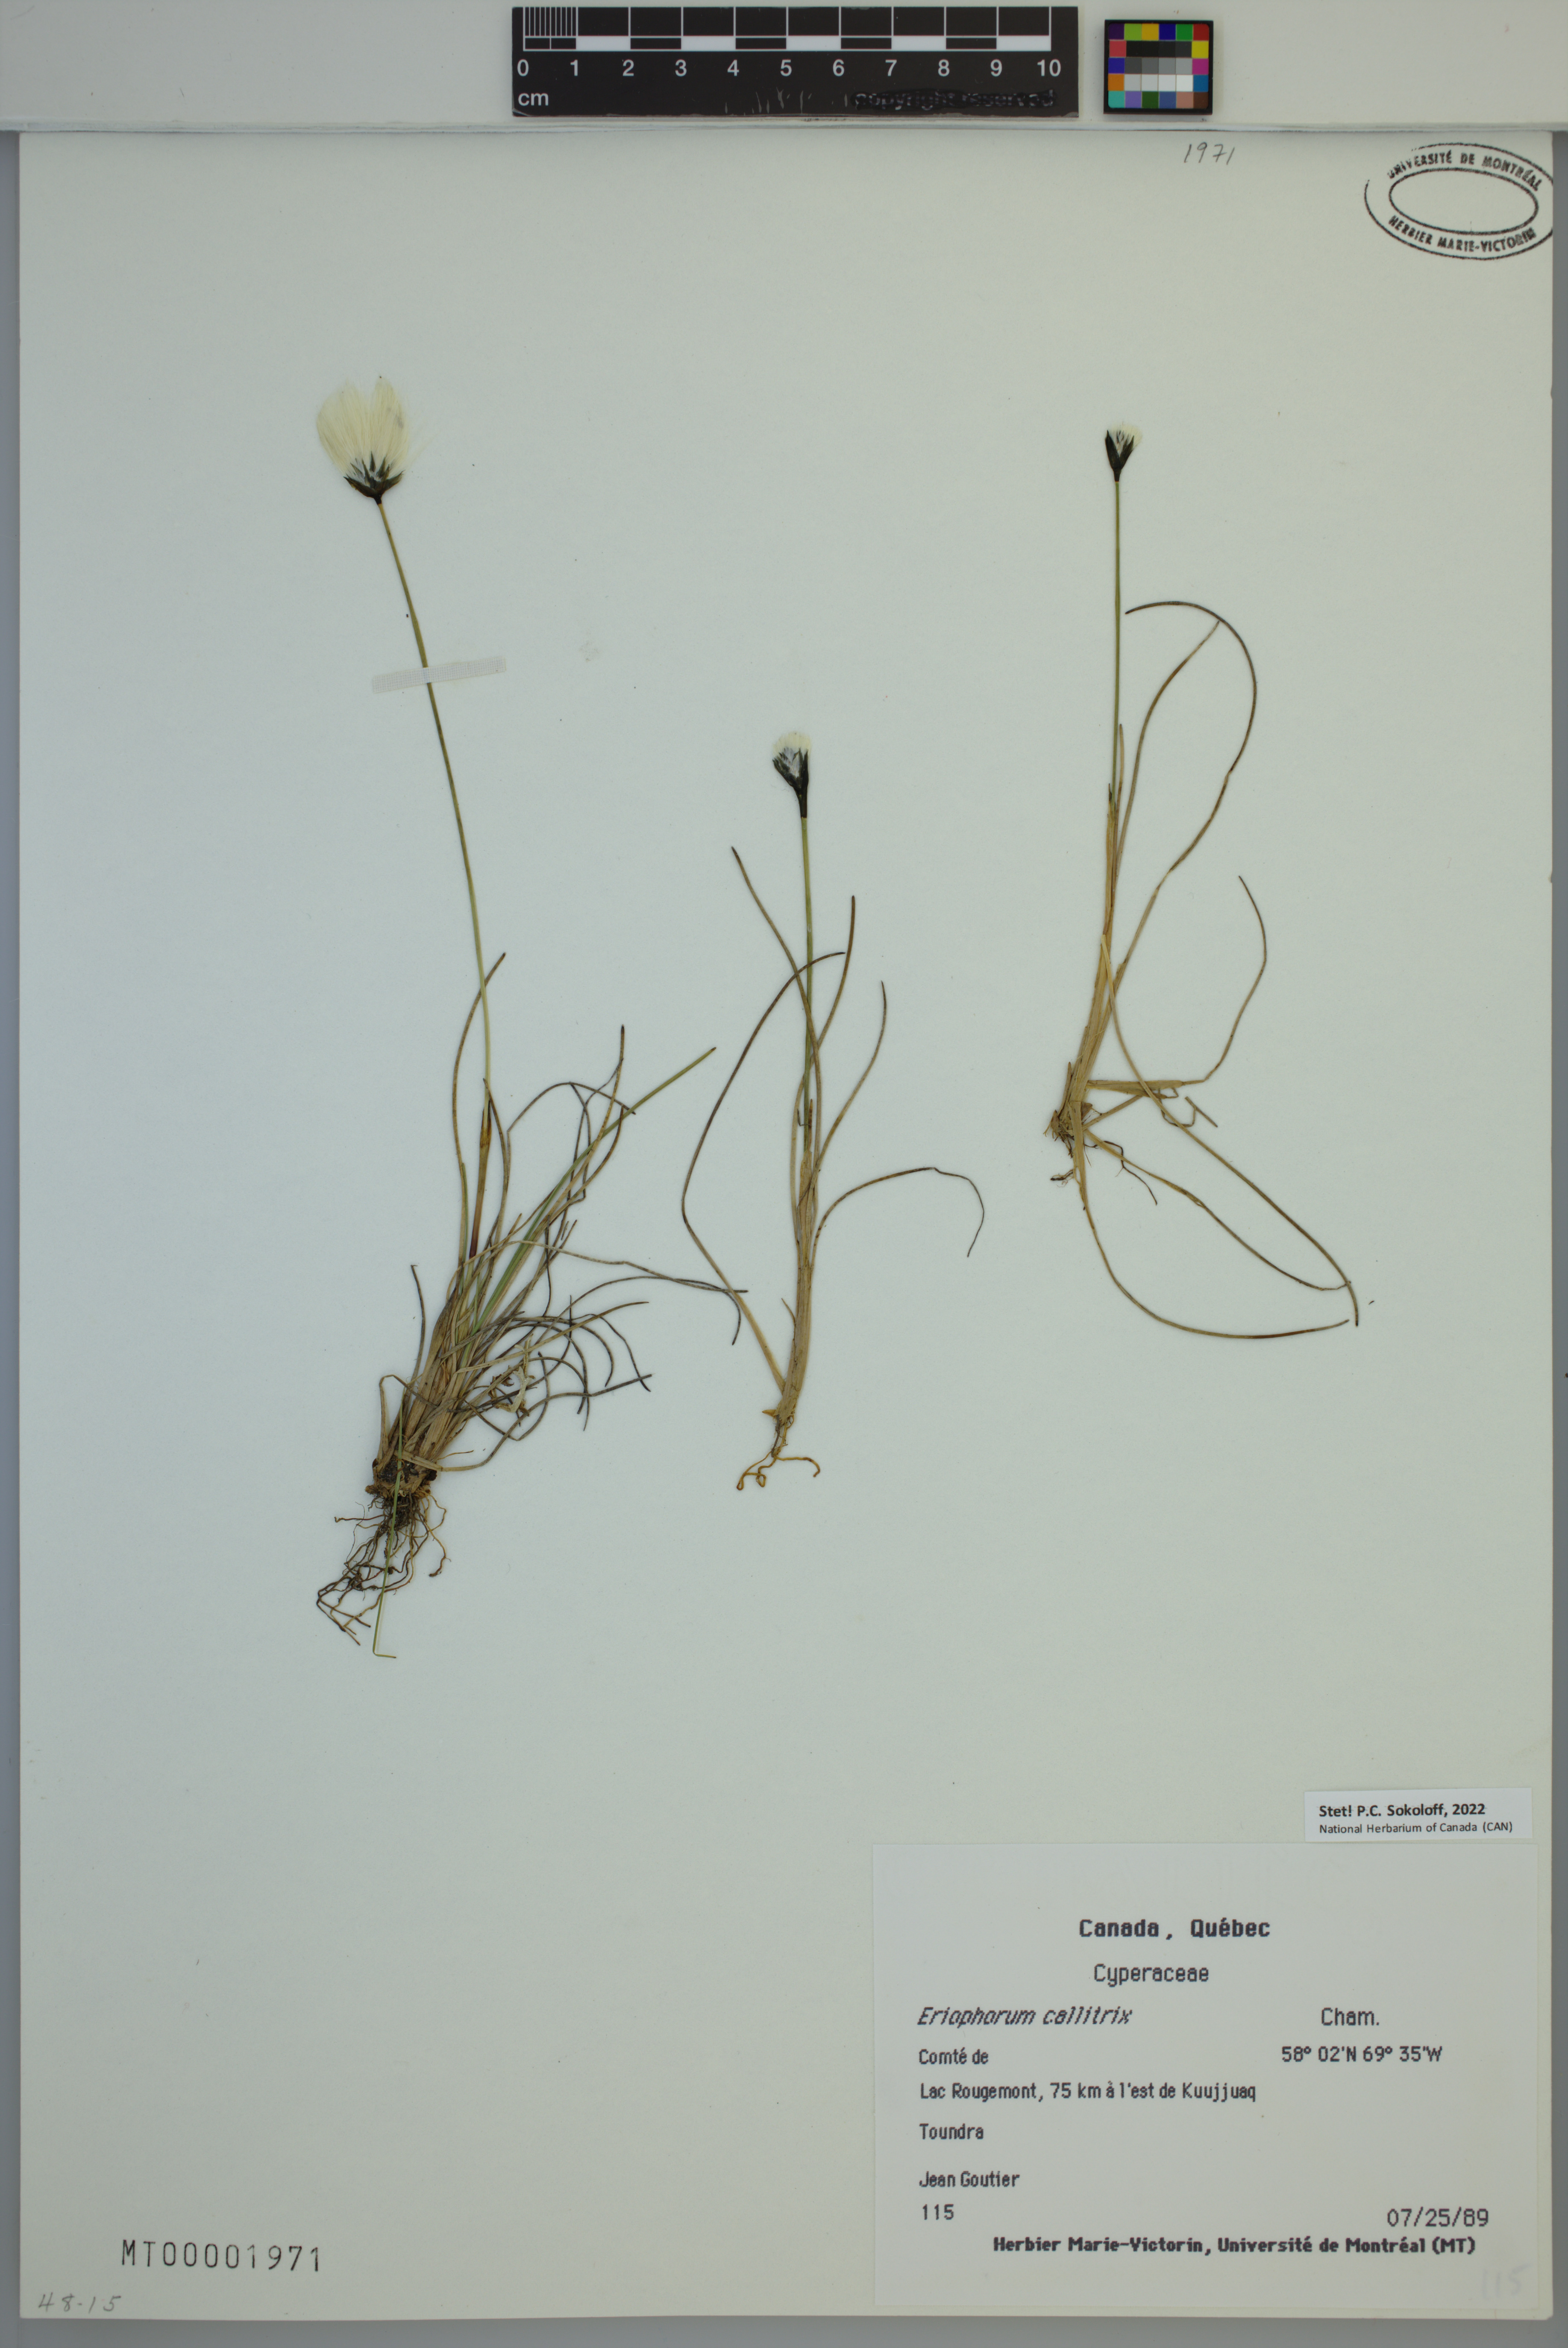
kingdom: Plantae
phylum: Tracheophyta
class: Liliopsida
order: Poales
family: Cyperaceae
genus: Eriophorum
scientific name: Eriophorum callitrix
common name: Arctic cottongrass
